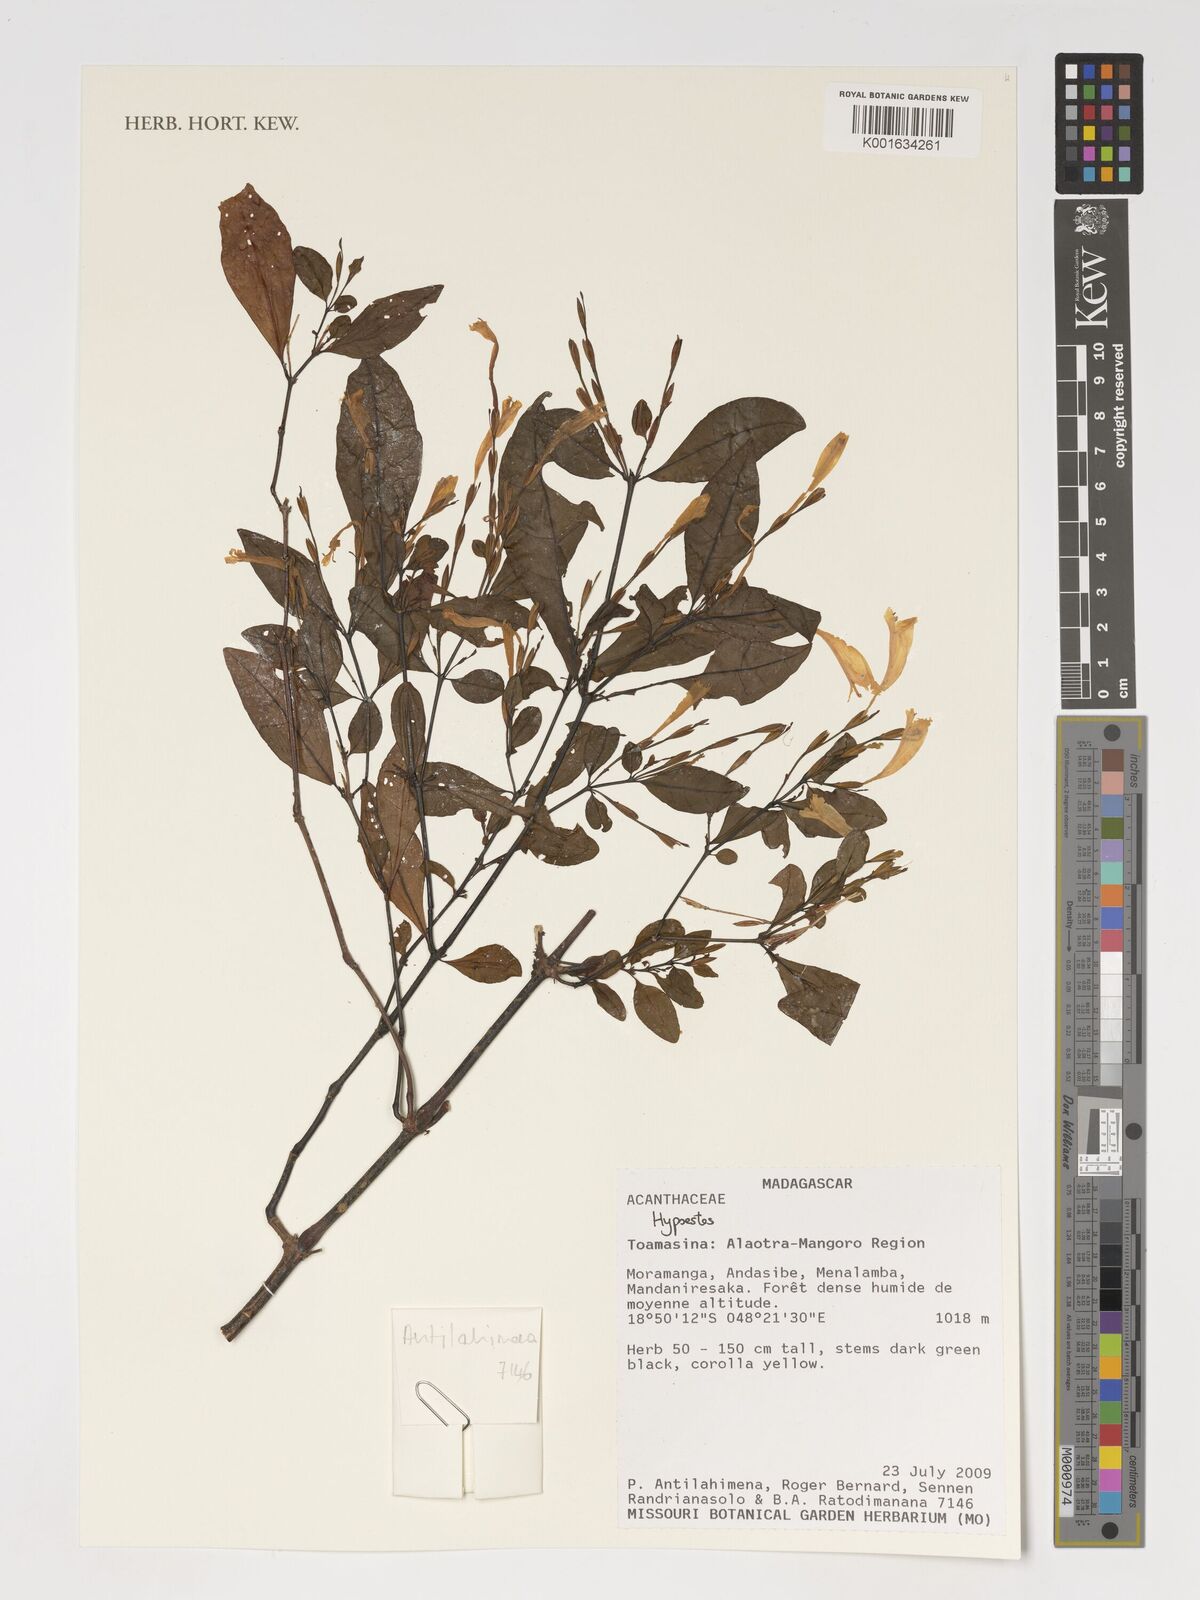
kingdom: Plantae
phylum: Tracheophyta
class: Magnoliopsida
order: Lamiales
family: Acanthaceae
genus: Hypoestes
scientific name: Hypoestes
